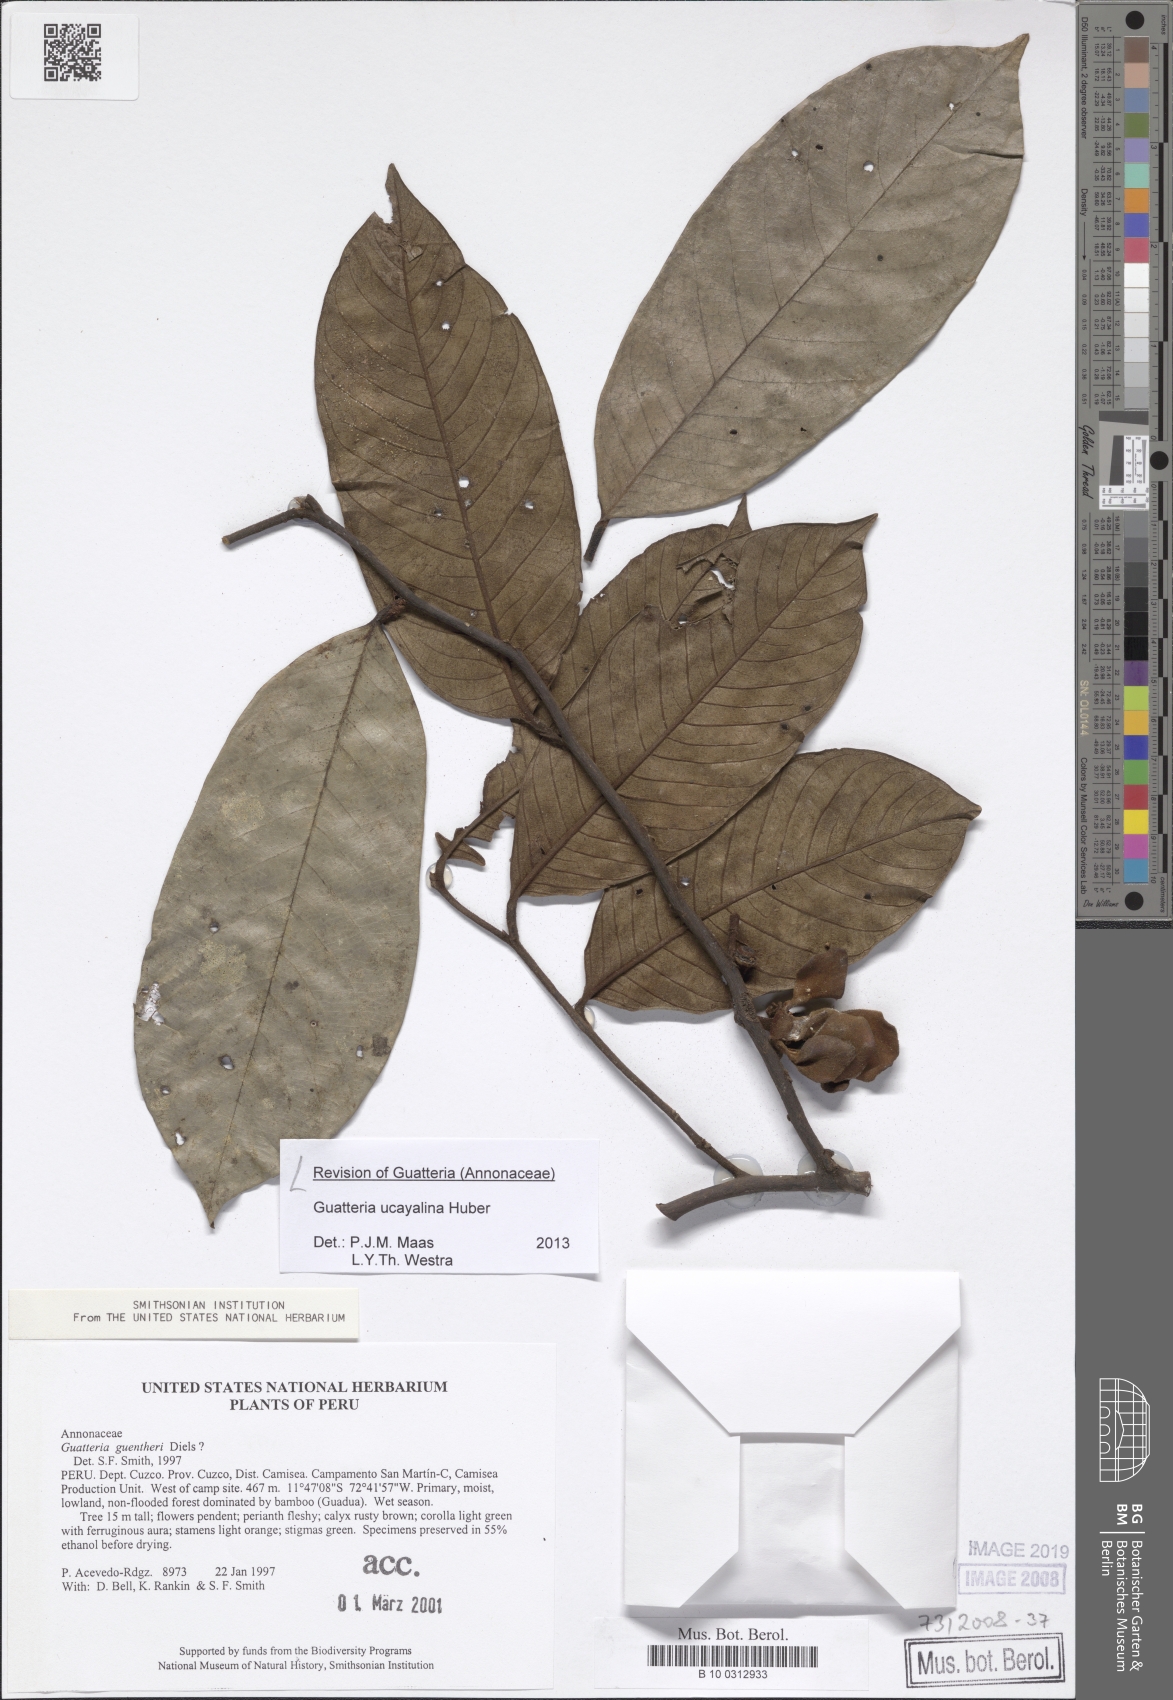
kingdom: Plantae
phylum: Tracheophyta
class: Magnoliopsida
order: Magnoliales
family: Annonaceae
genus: Guatteria
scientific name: Guatteria blepharophylla
